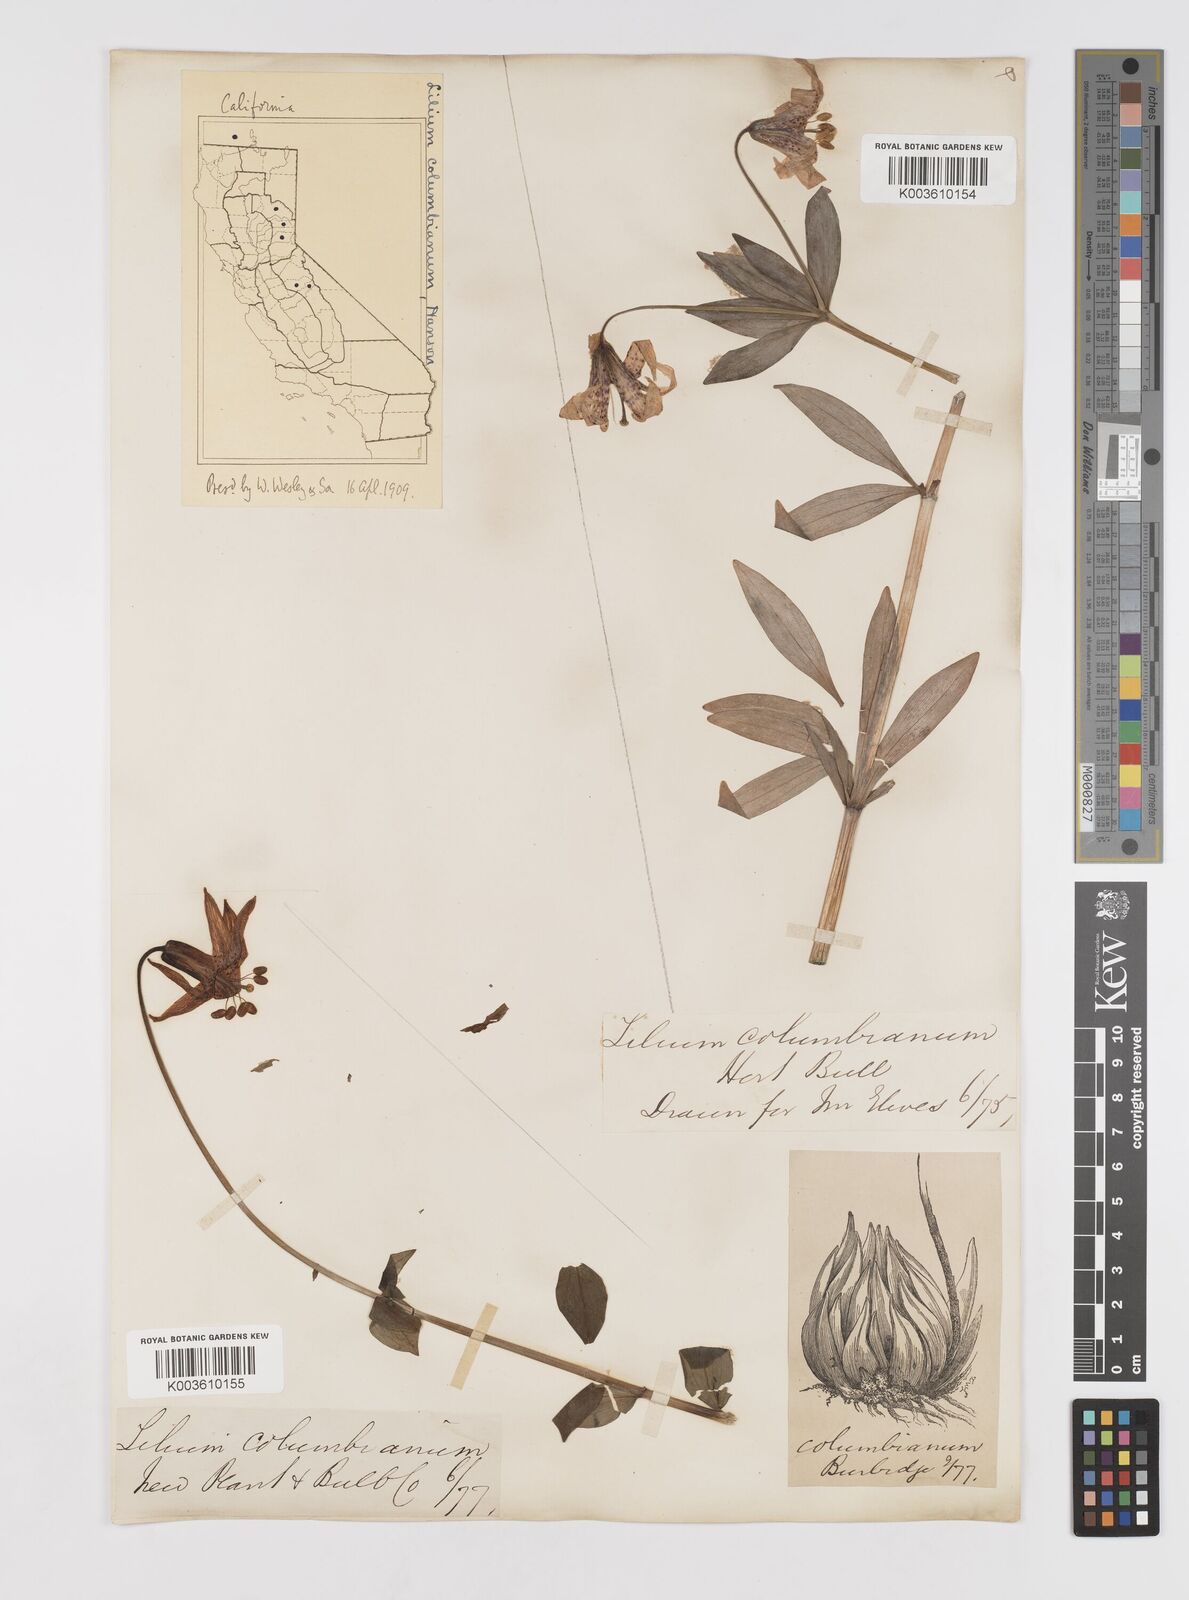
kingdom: Plantae
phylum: Tracheophyta
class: Liliopsida
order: Liliales
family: Liliaceae
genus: Lilium
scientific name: Lilium columbianum
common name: Columbia lily
